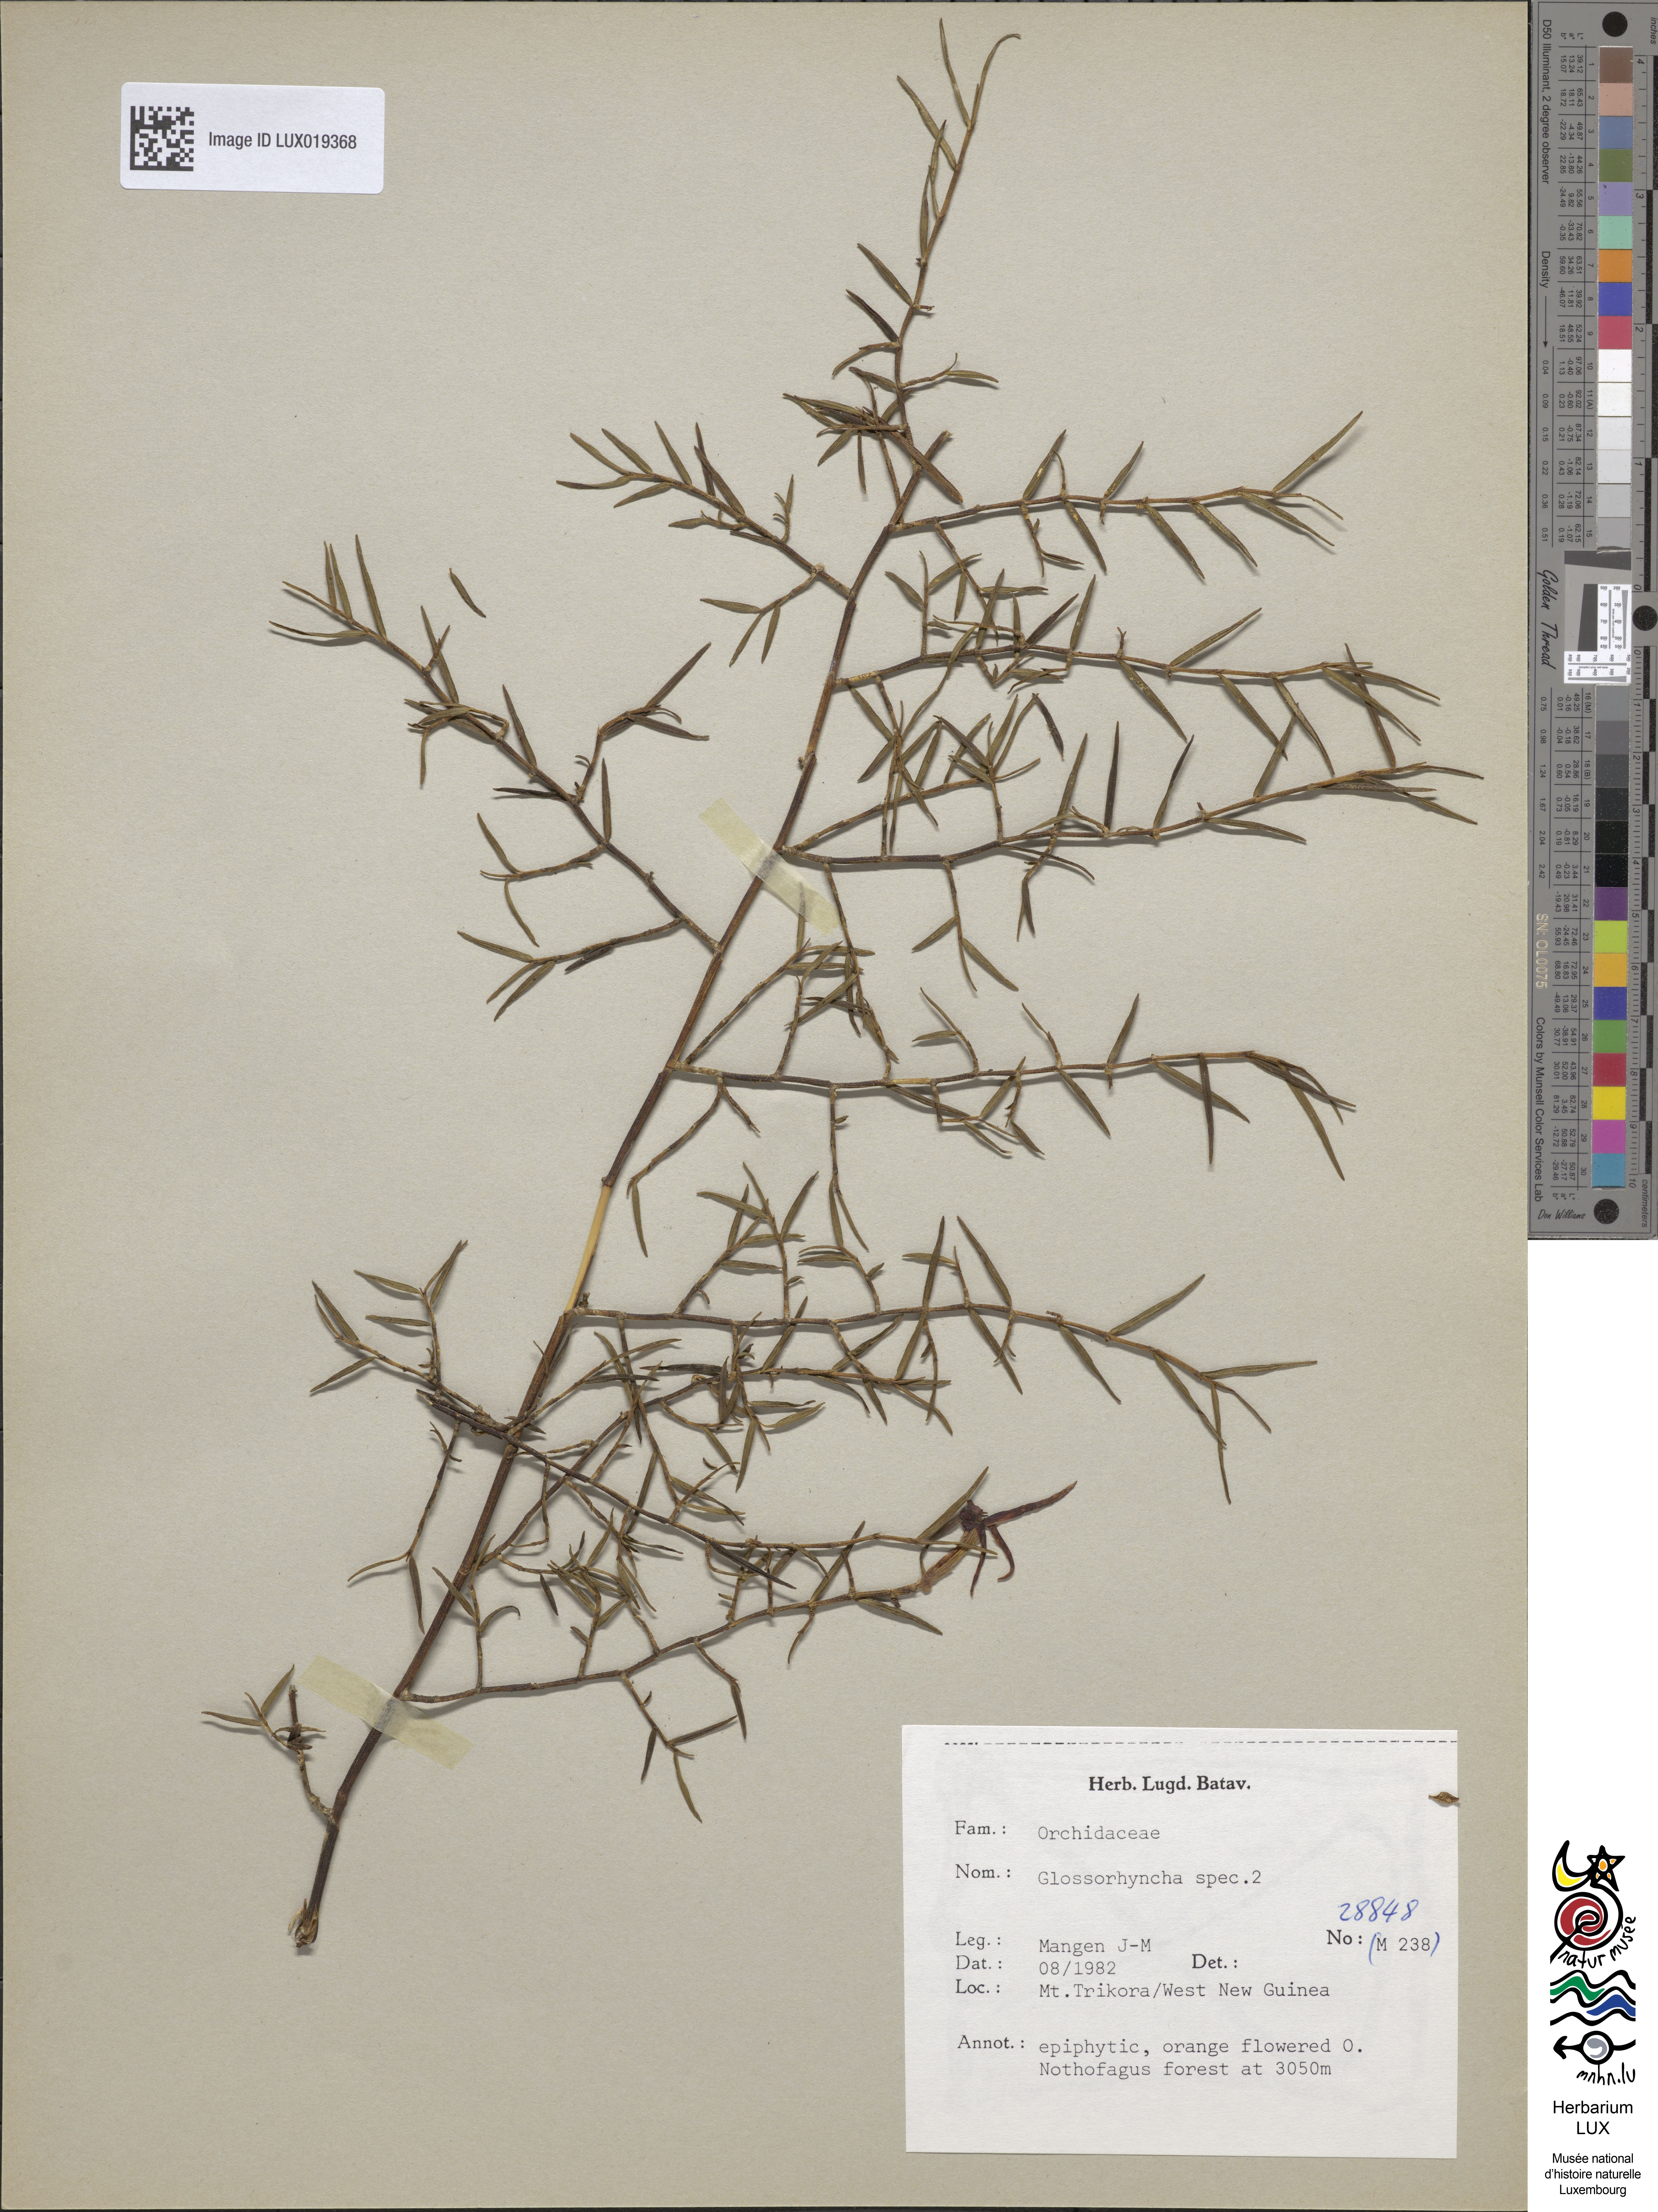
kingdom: Plantae
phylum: Tracheophyta
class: Liliopsida
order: Asparagales
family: Orchidaceae
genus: Glomera
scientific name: Glomera
